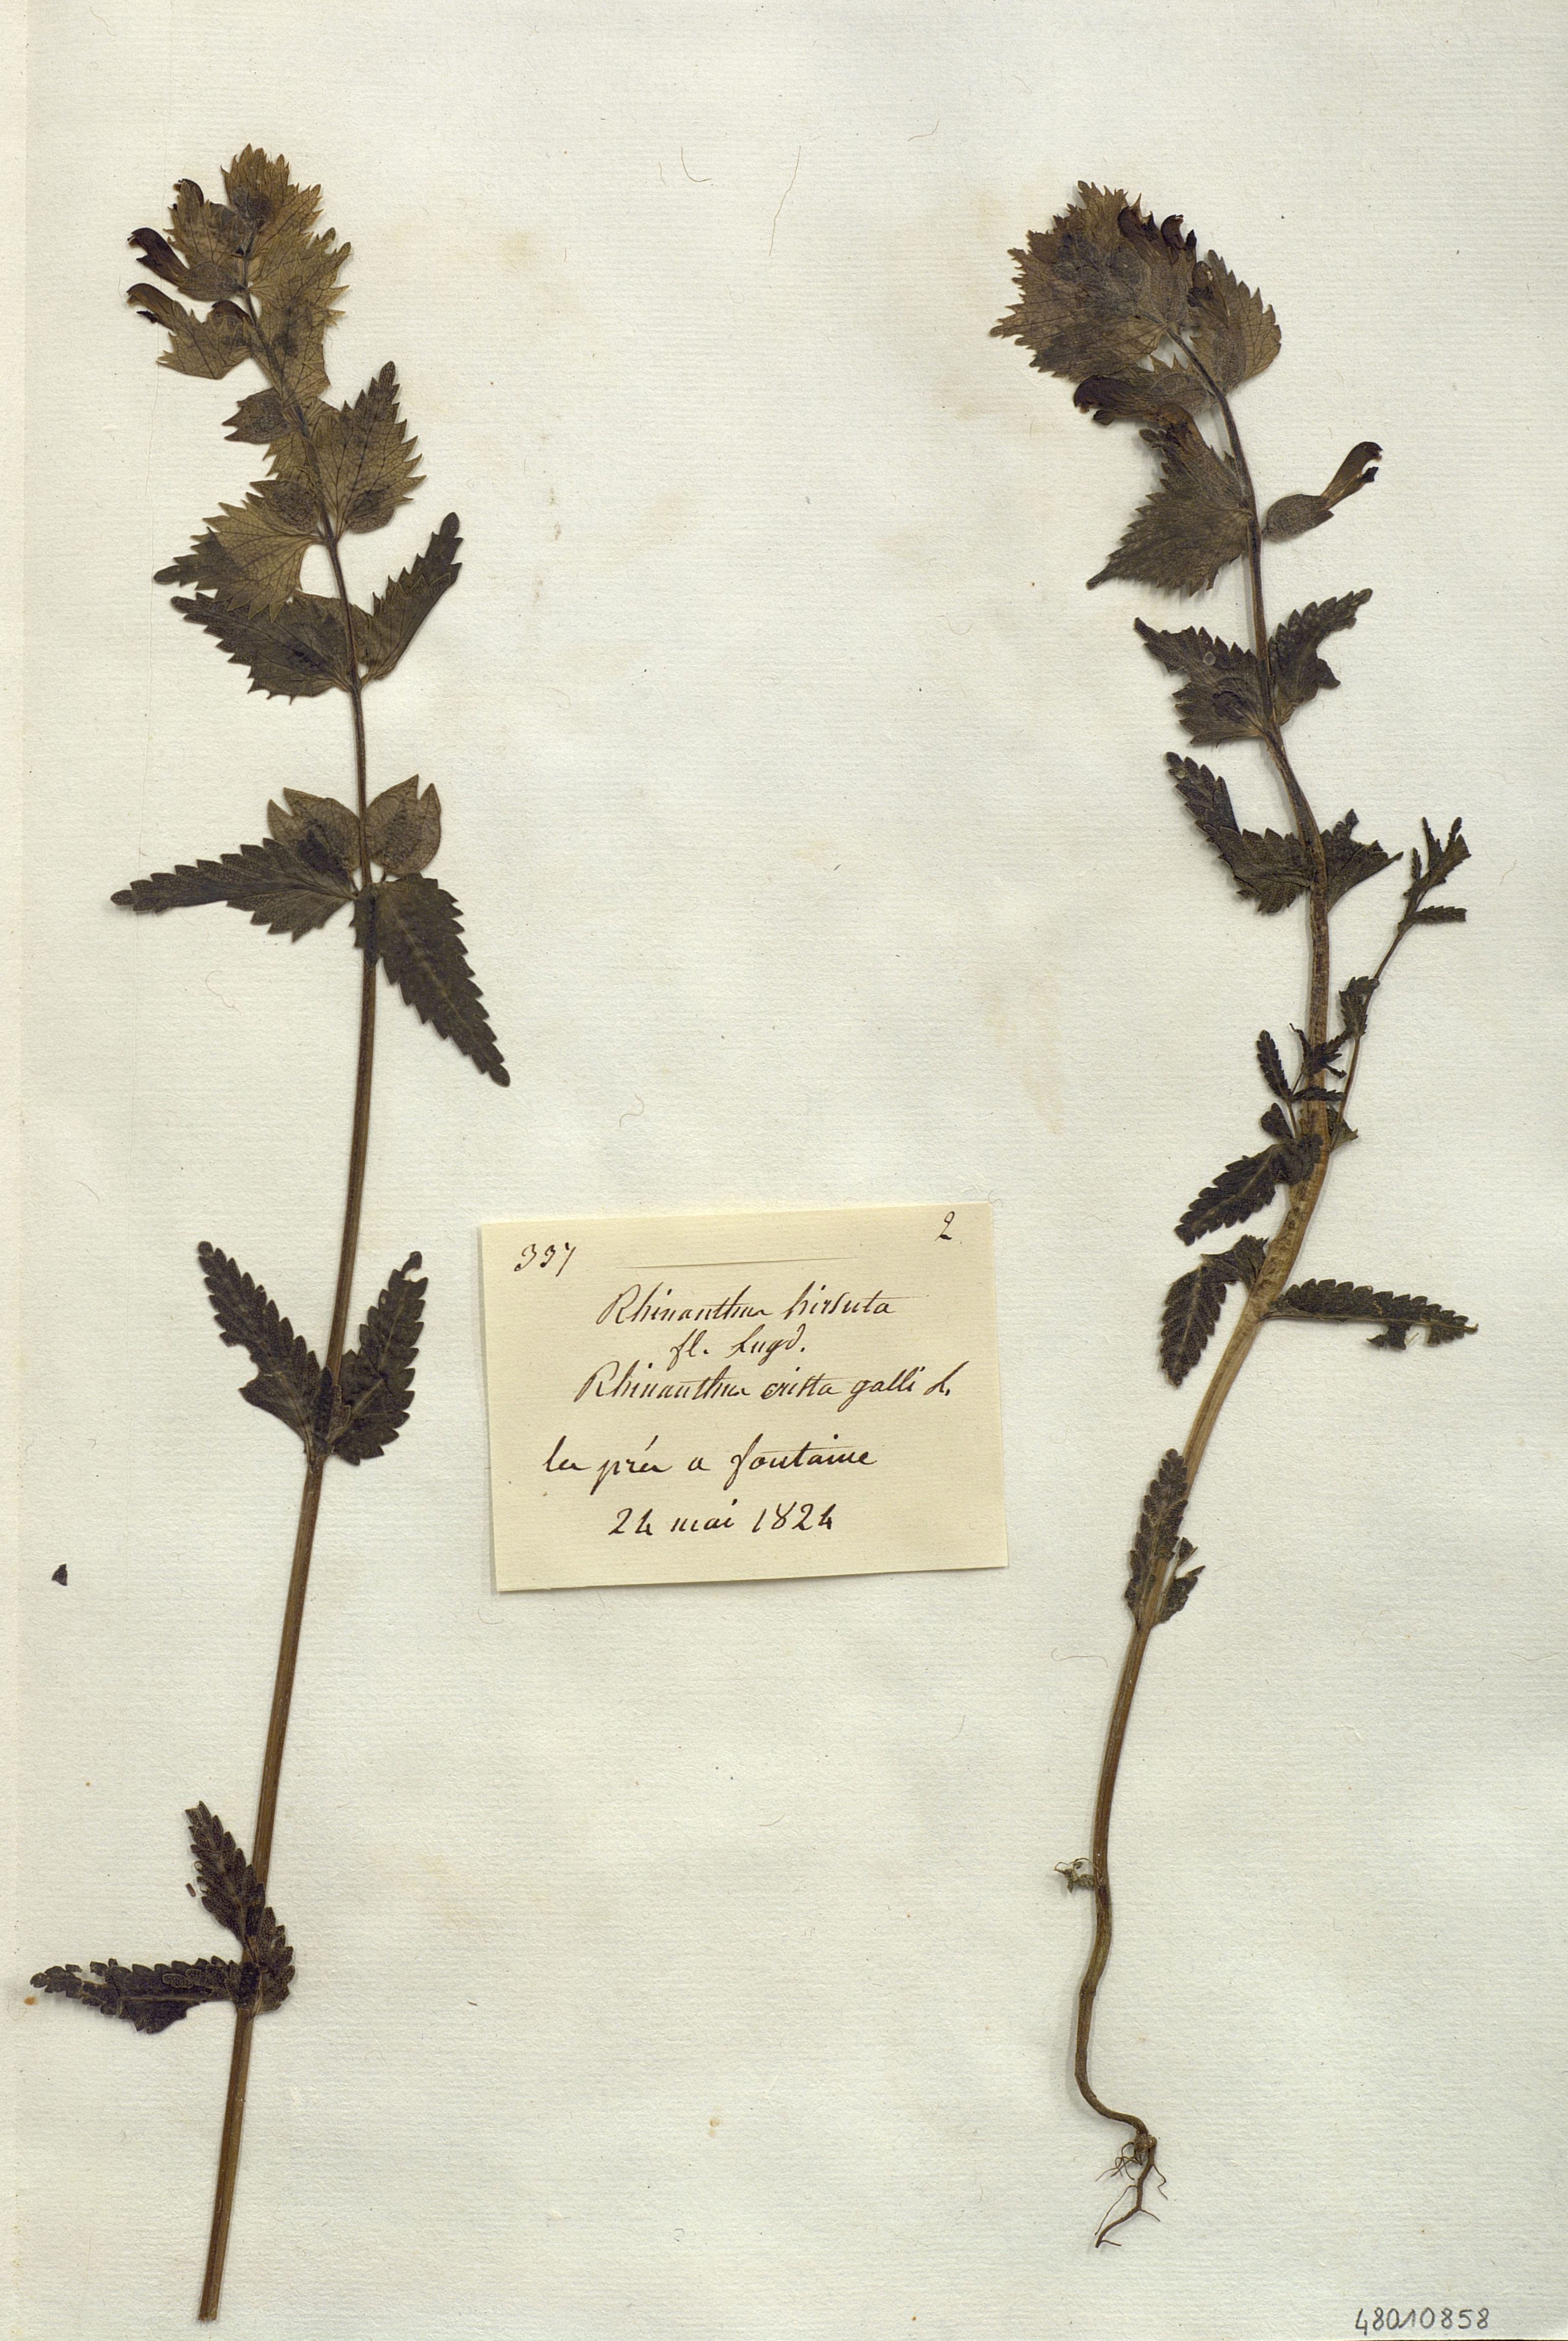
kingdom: Plantae
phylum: Tracheophyta
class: Magnoliopsida
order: Lamiales
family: Orobanchaceae
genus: Rhinanthus
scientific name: Rhinanthus alectorolophus
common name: Greater yellow-rattle
